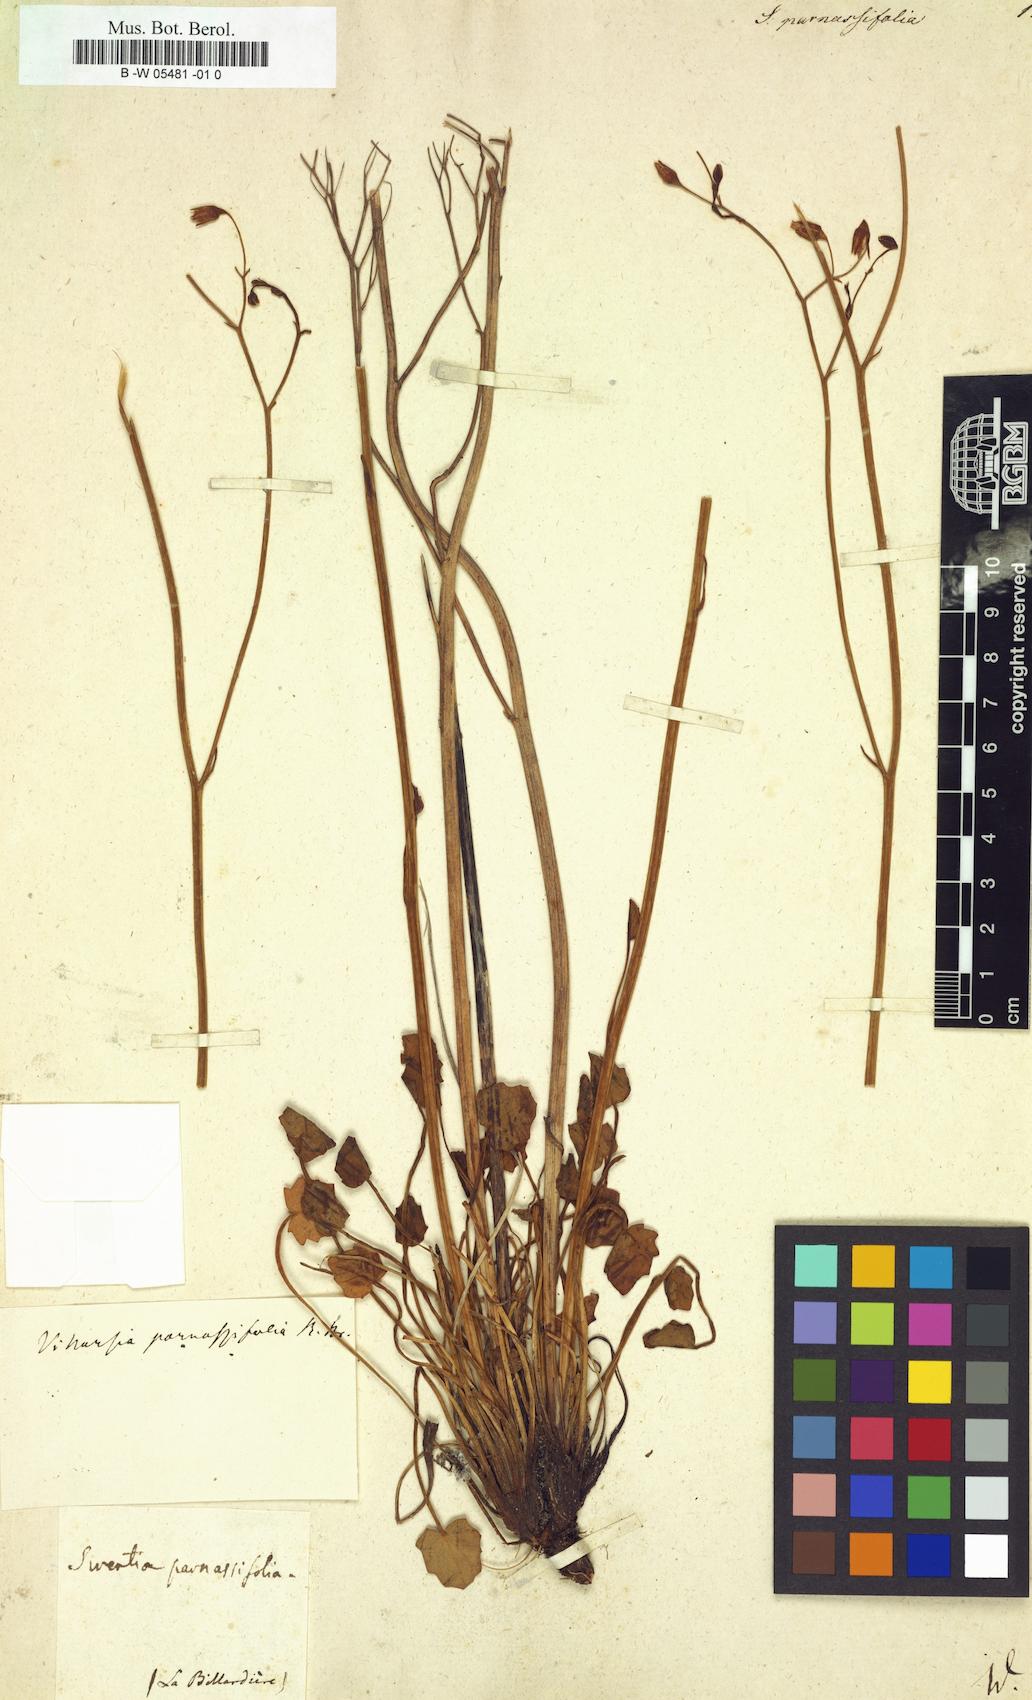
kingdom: Plantae
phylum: Tracheophyta
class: Magnoliopsida
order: Gentianales
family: Gentianaceae
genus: Swertia
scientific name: Swertia crassiuscula
